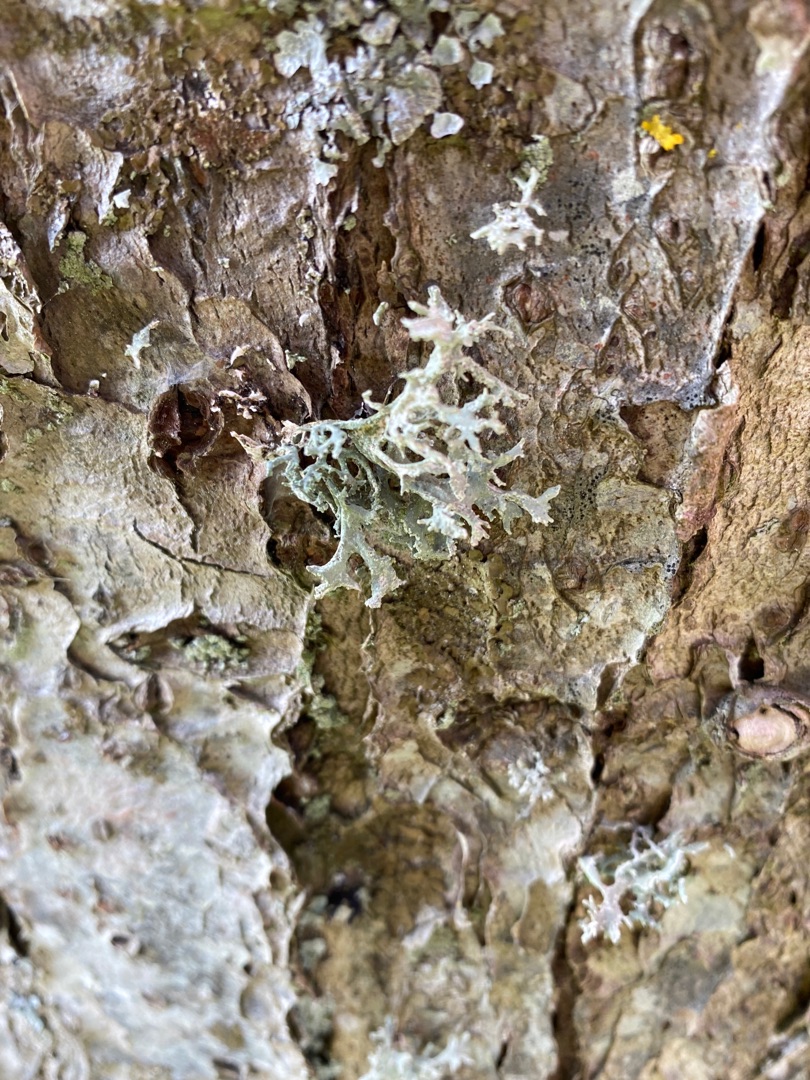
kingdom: Fungi
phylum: Ascomycota
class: Lecanoromycetes
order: Lecanorales
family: Parmeliaceae
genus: Evernia
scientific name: Evernia prunastri
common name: Almindelig slåenlav
